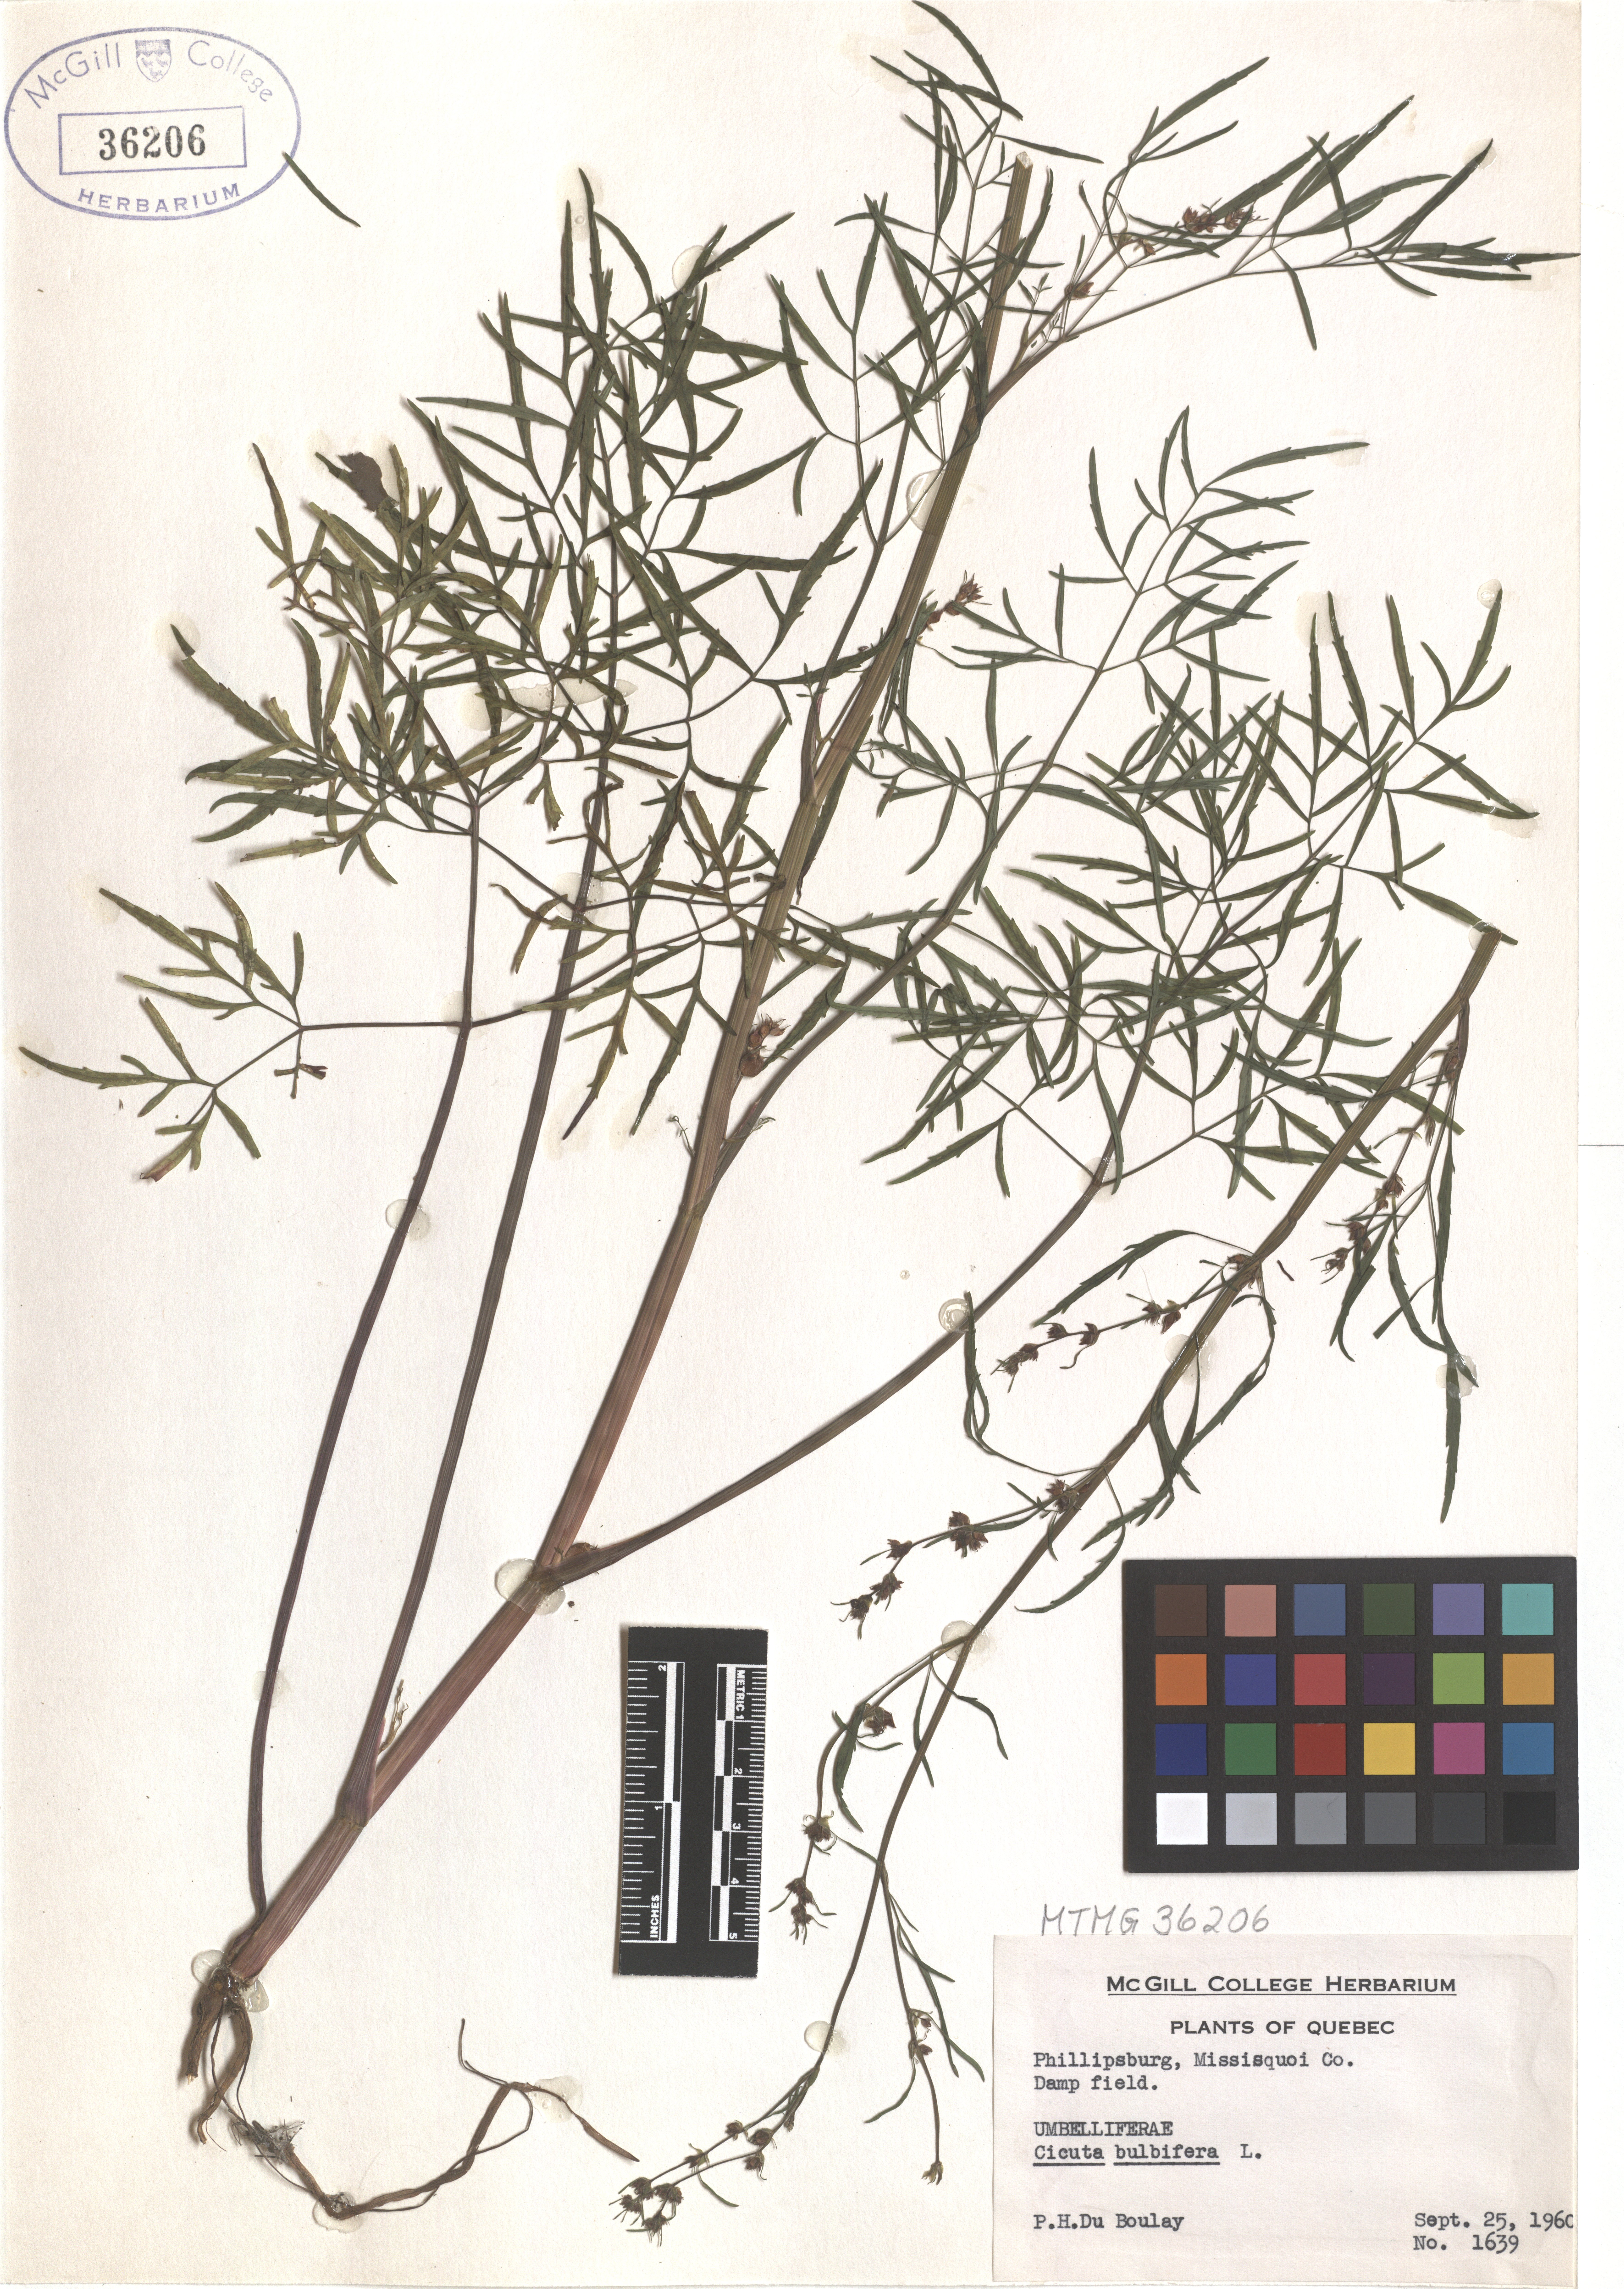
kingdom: Plantae
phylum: Tracheophyta
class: Magnoliopsida
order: Apiales
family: Apiaceae
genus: Cicuta
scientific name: Cicuta bulbifera
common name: Bulb-bearing water-hemlock
